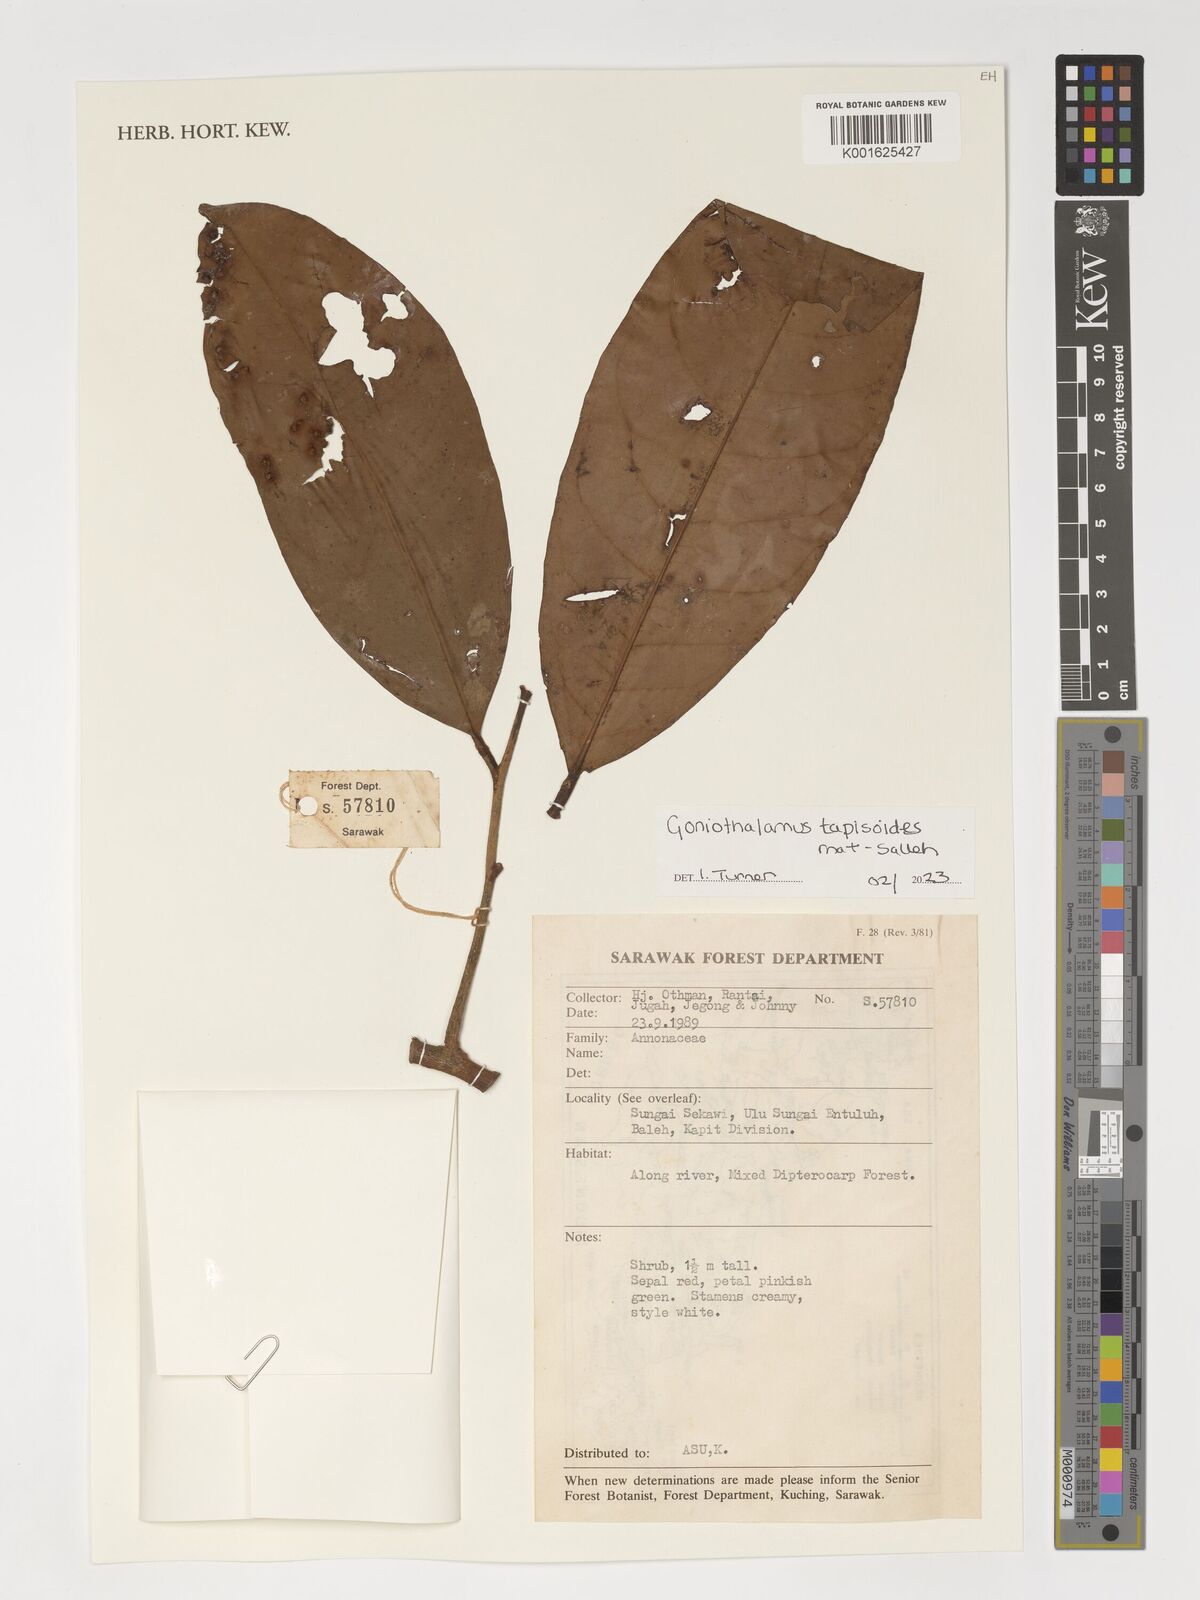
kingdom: Plantae
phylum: Tracheophyta
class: Magnoliopsida
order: Magnoliales
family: Annonaceae
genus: Goniothalamus
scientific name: Goniothalamus tapisoides
